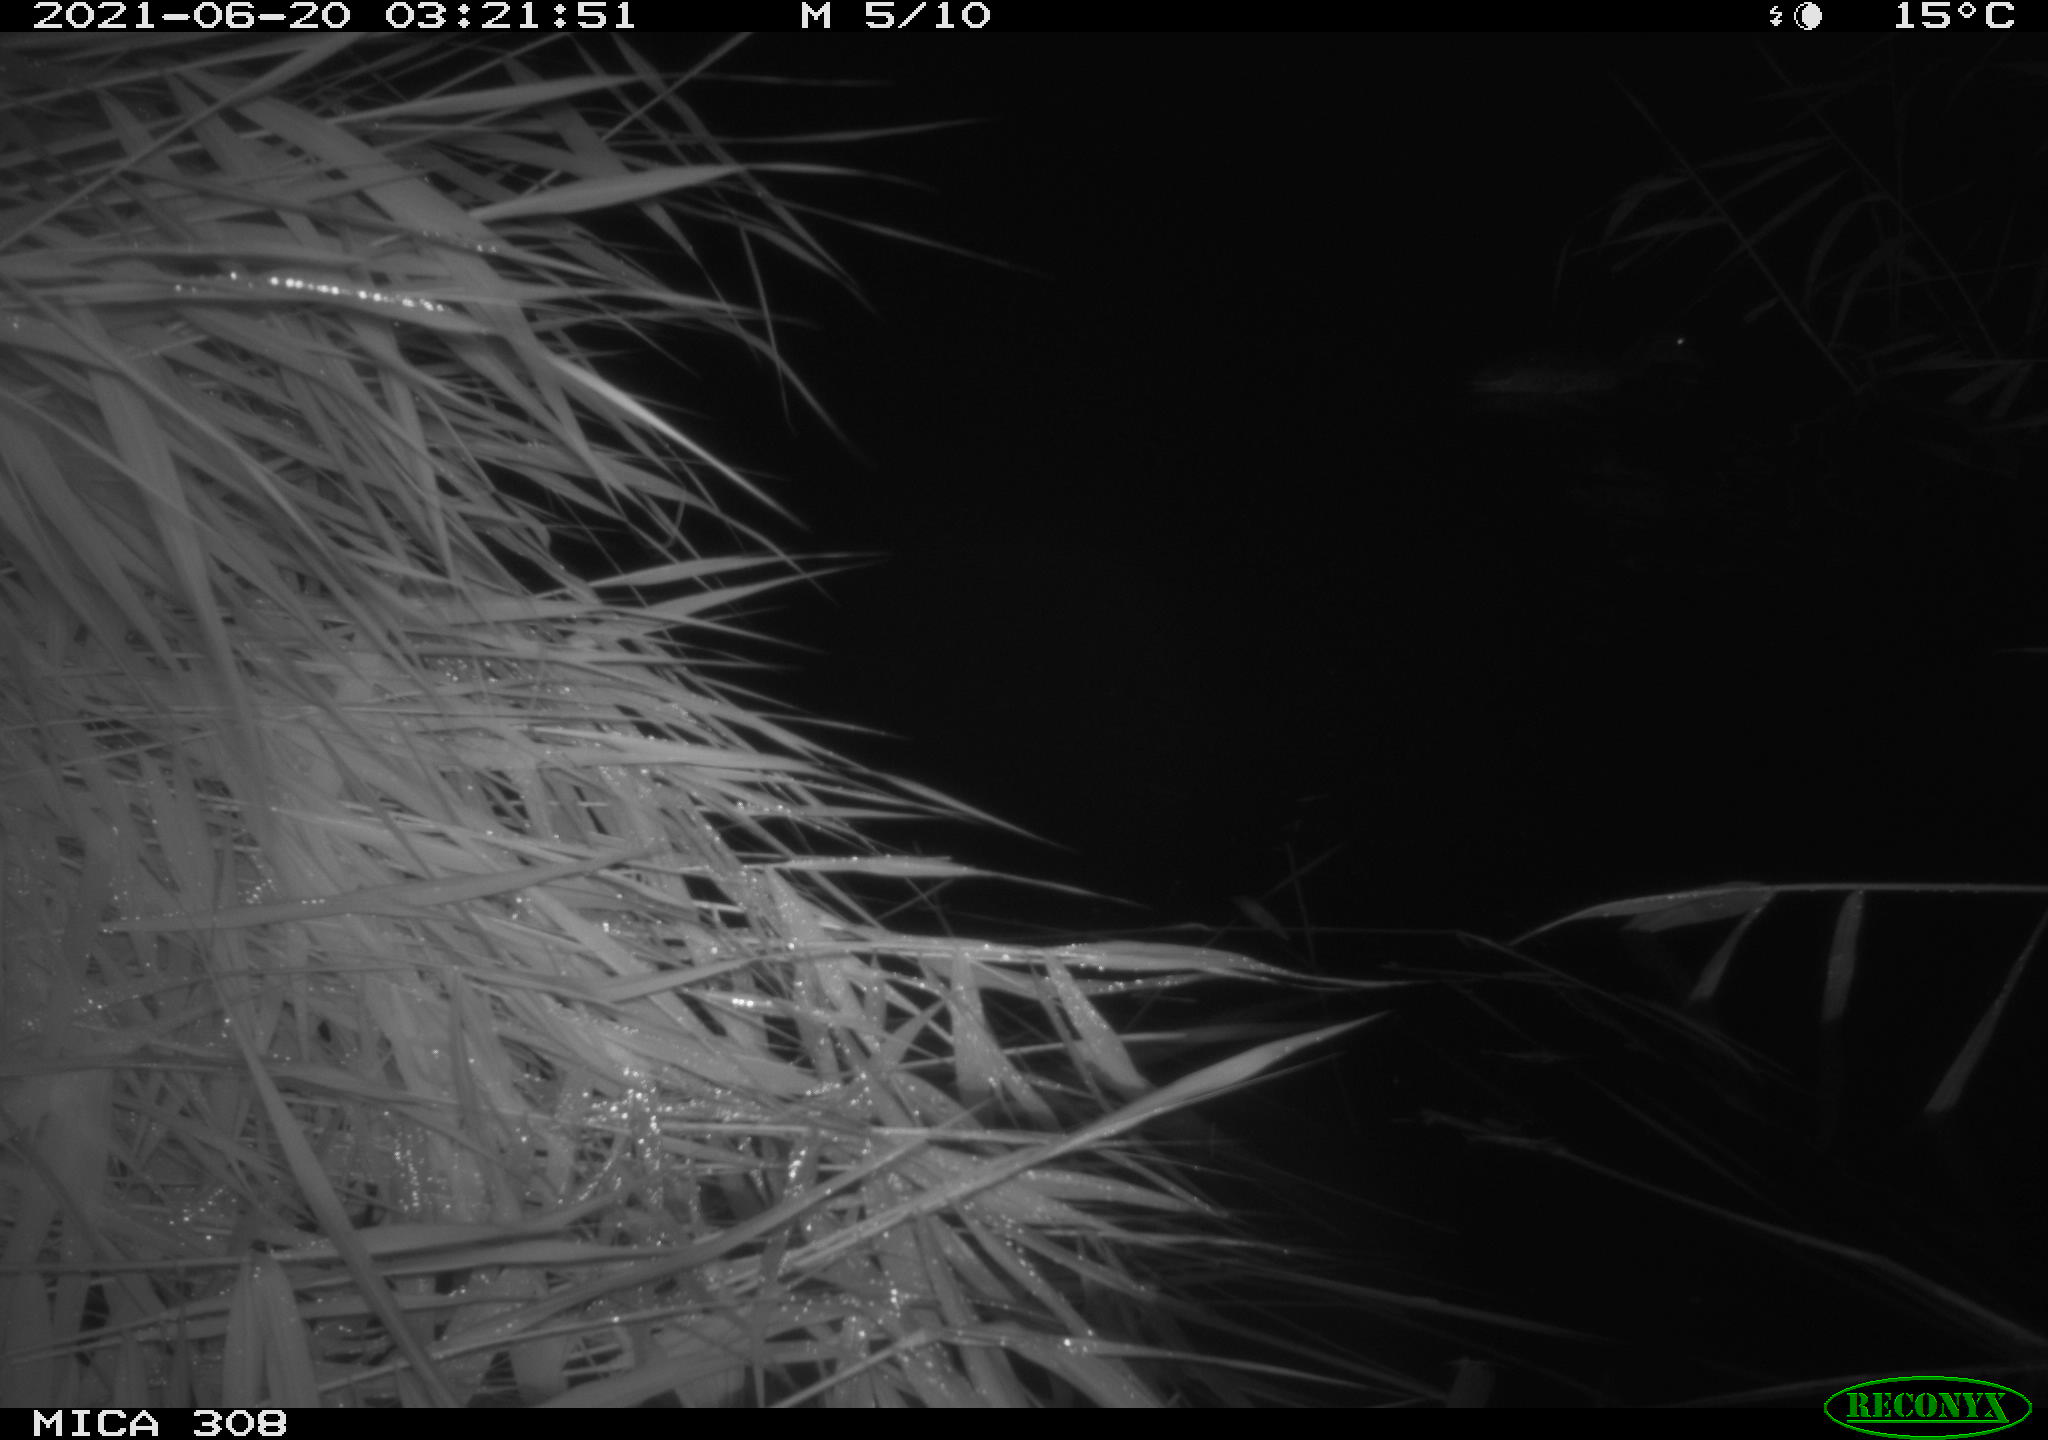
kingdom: Animalia
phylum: Chordata
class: Aves
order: Anseriformes
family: Anatidae
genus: Anas
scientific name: Anas platyrhynchos
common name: Mallard
